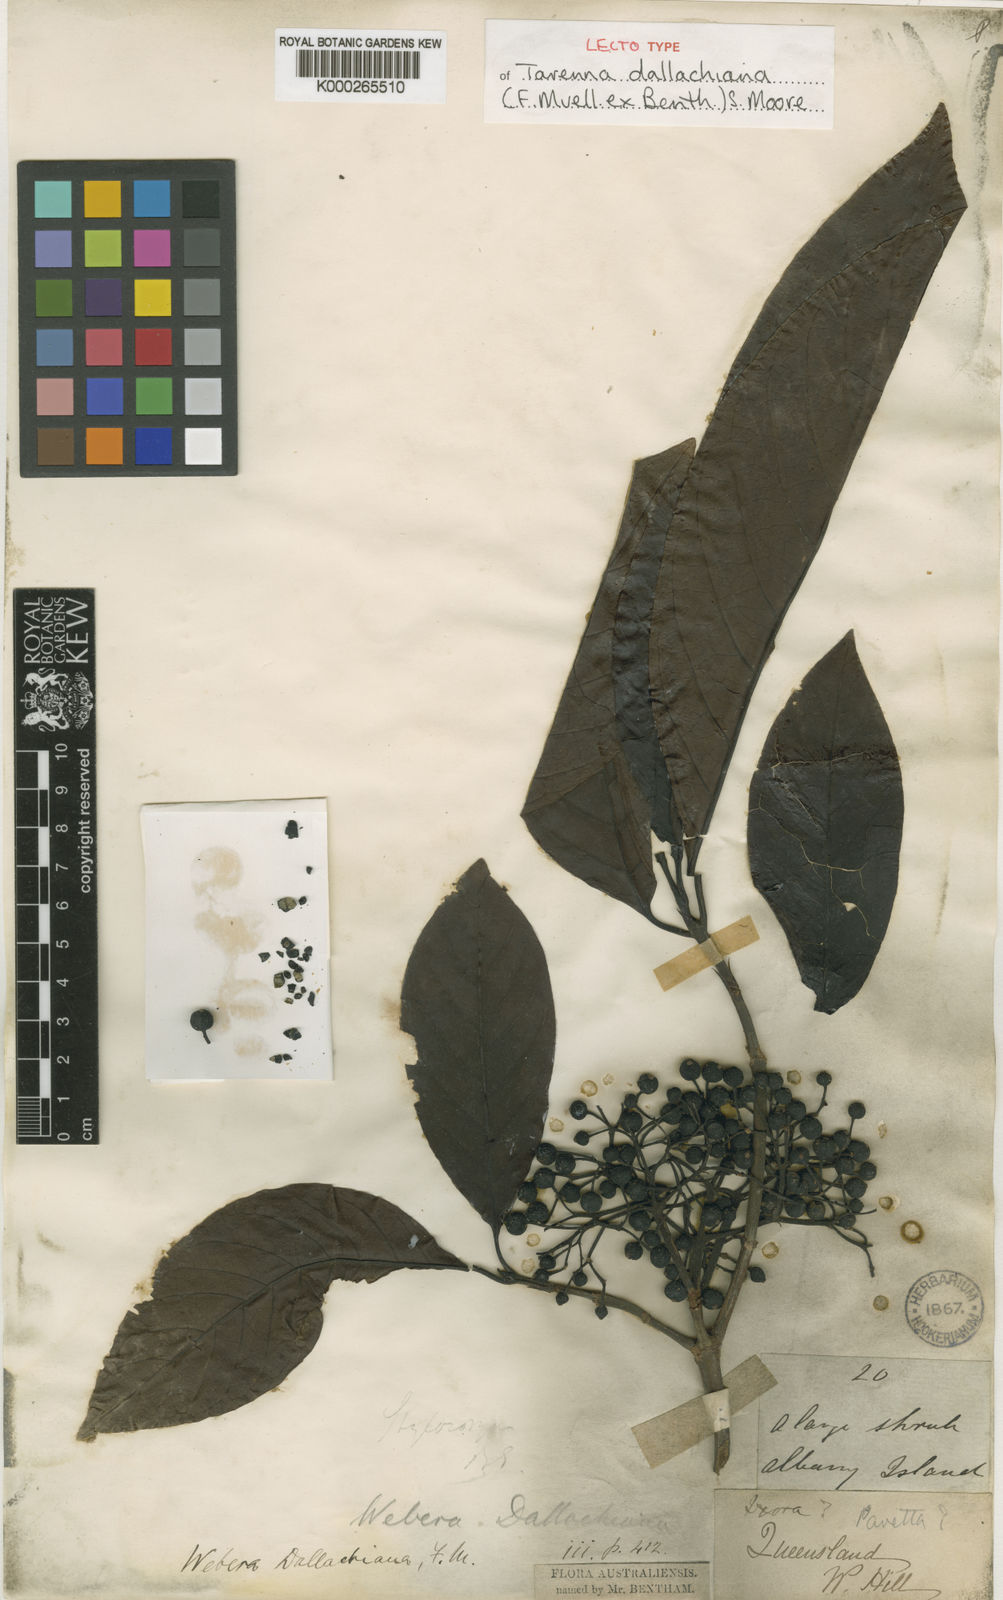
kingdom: Plantae
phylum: Tracheophyta
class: Magnoliopsida
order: Gentianales
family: Rubiaceae
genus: Tarenna
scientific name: Tarenna dallachiana
